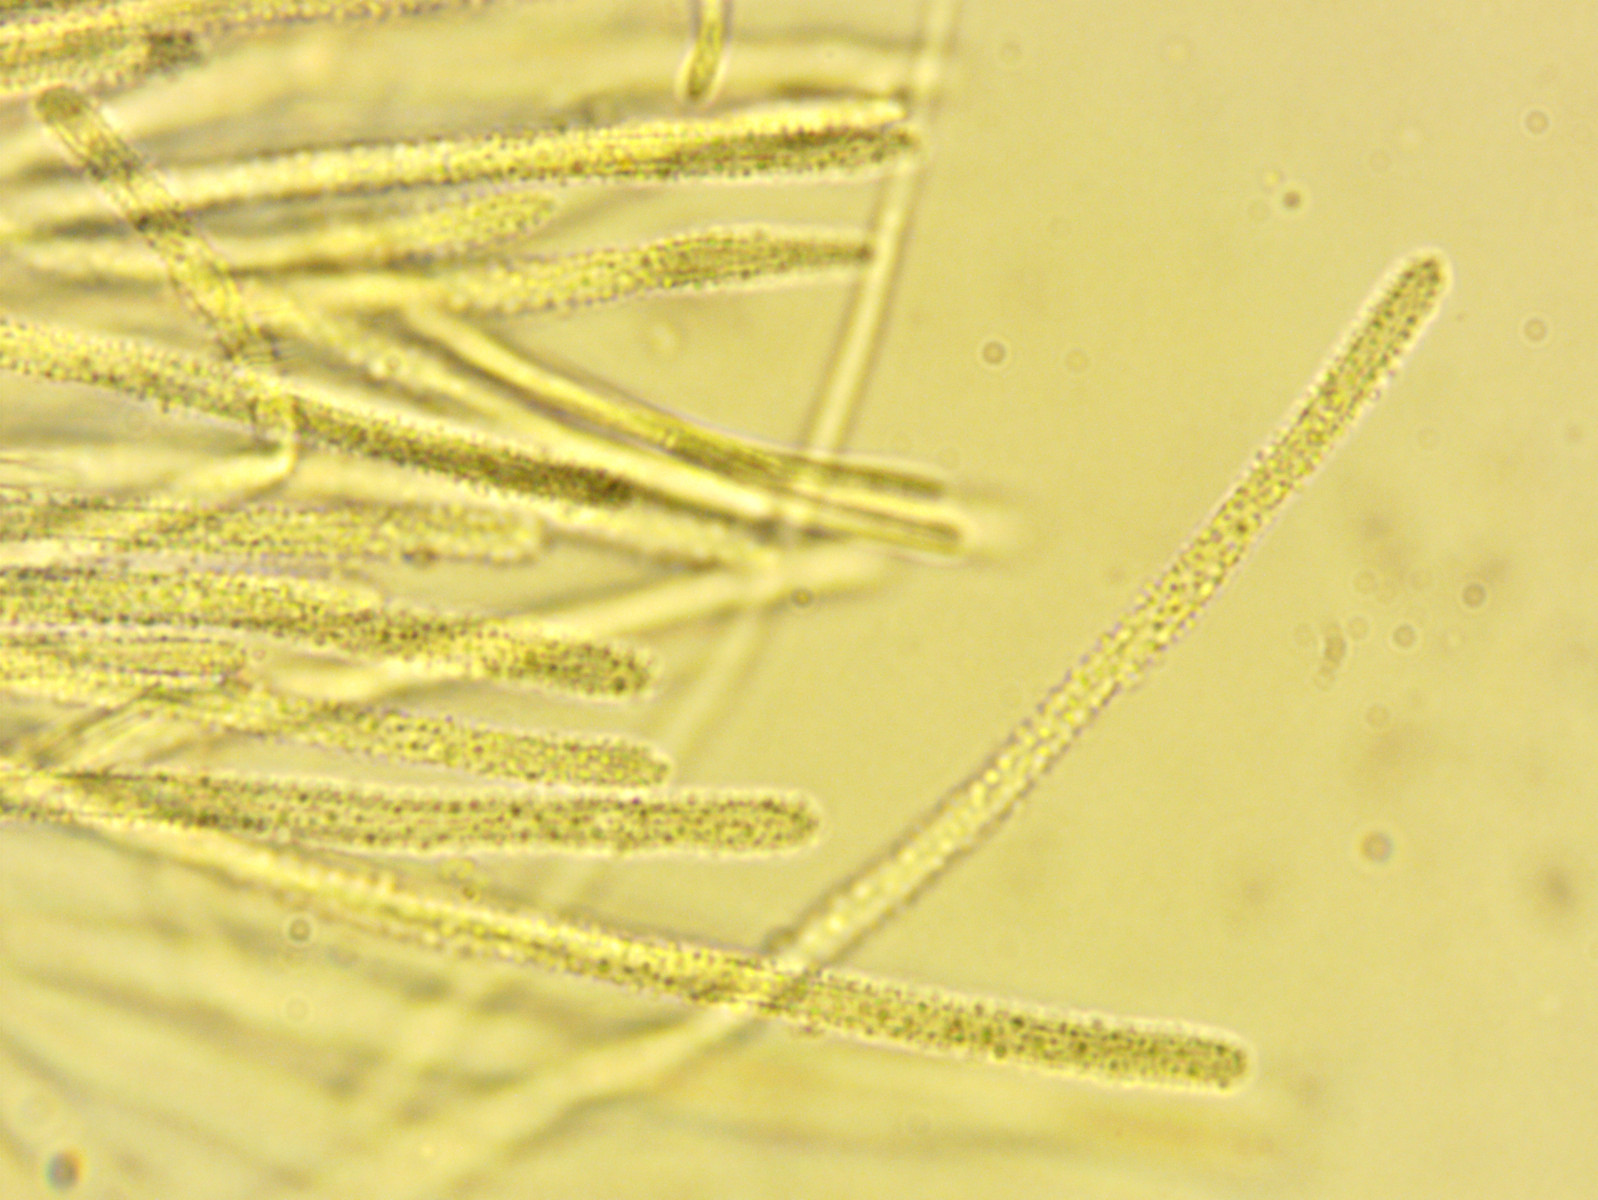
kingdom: Fungi
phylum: Ascomycota
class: Leotiomycetes
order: Helotiales
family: Lachnaceae
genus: Lachnellula
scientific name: Lachnellula occidentalis
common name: Larch disco
